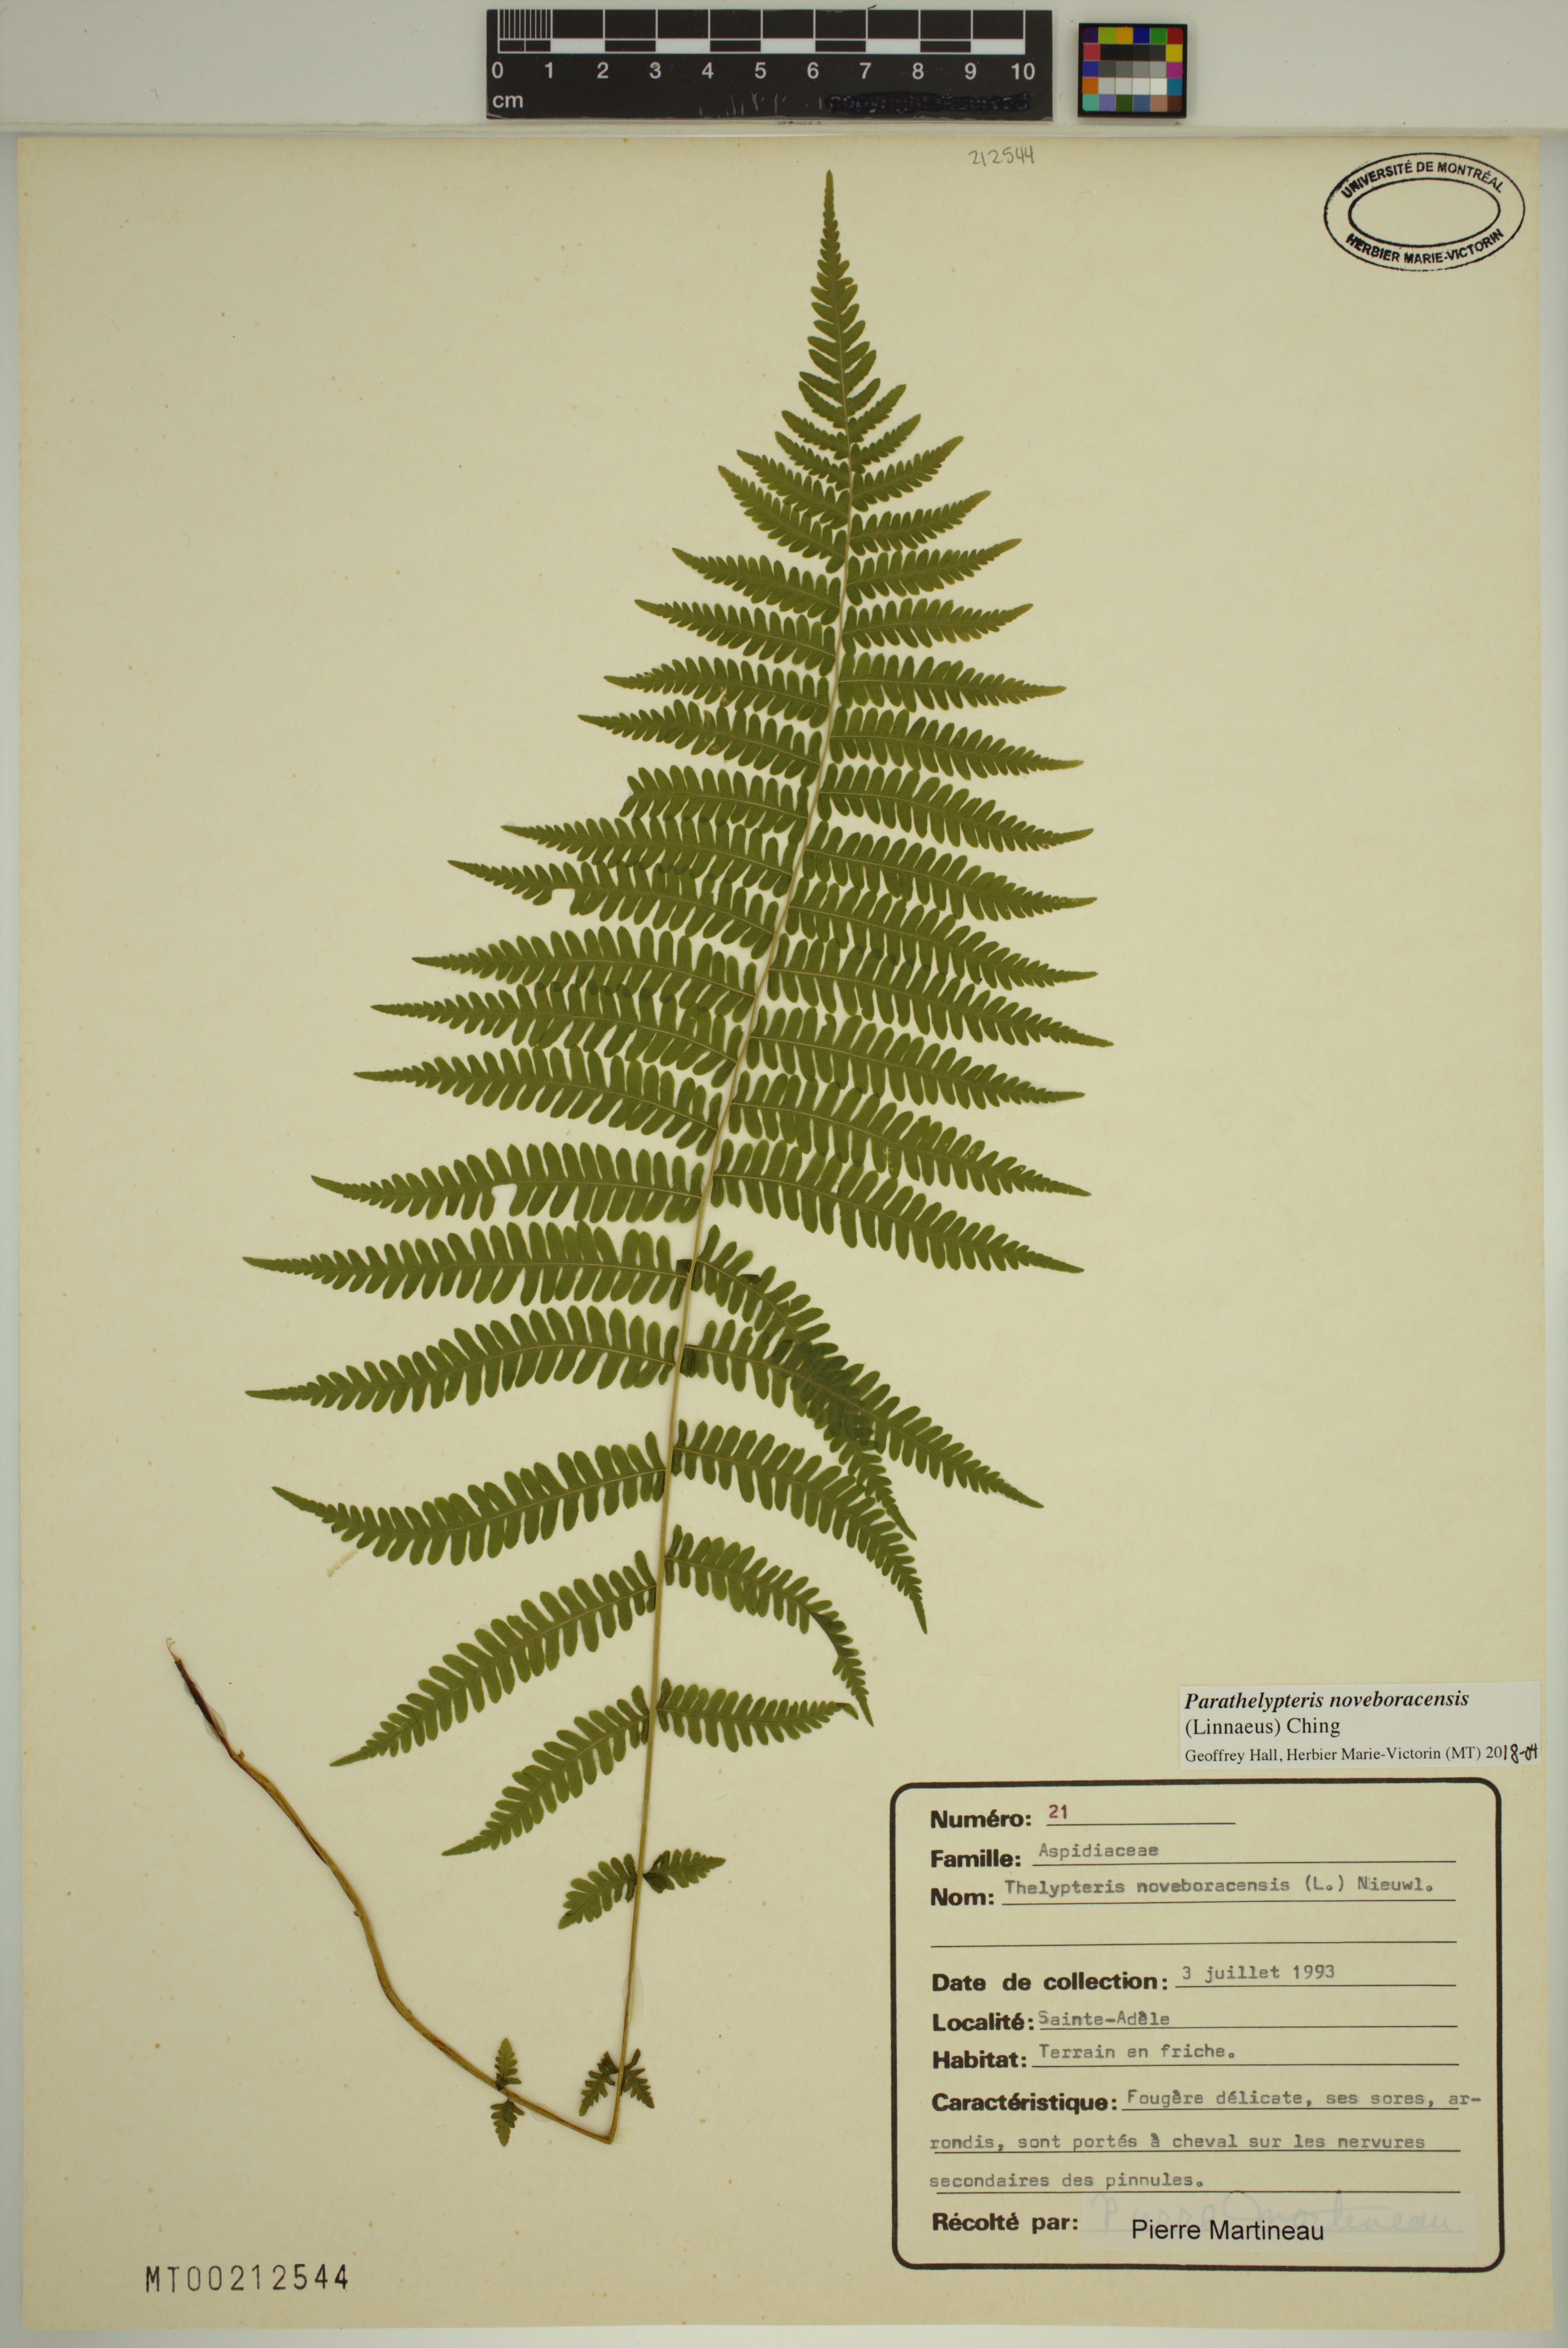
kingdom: Plantae
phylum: Tracheophyta
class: Polypodiopsida
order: Polypodiales
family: Thelypteridaceae
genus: Amauropelta
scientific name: Amauropelta noveboracensis
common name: New york fern
